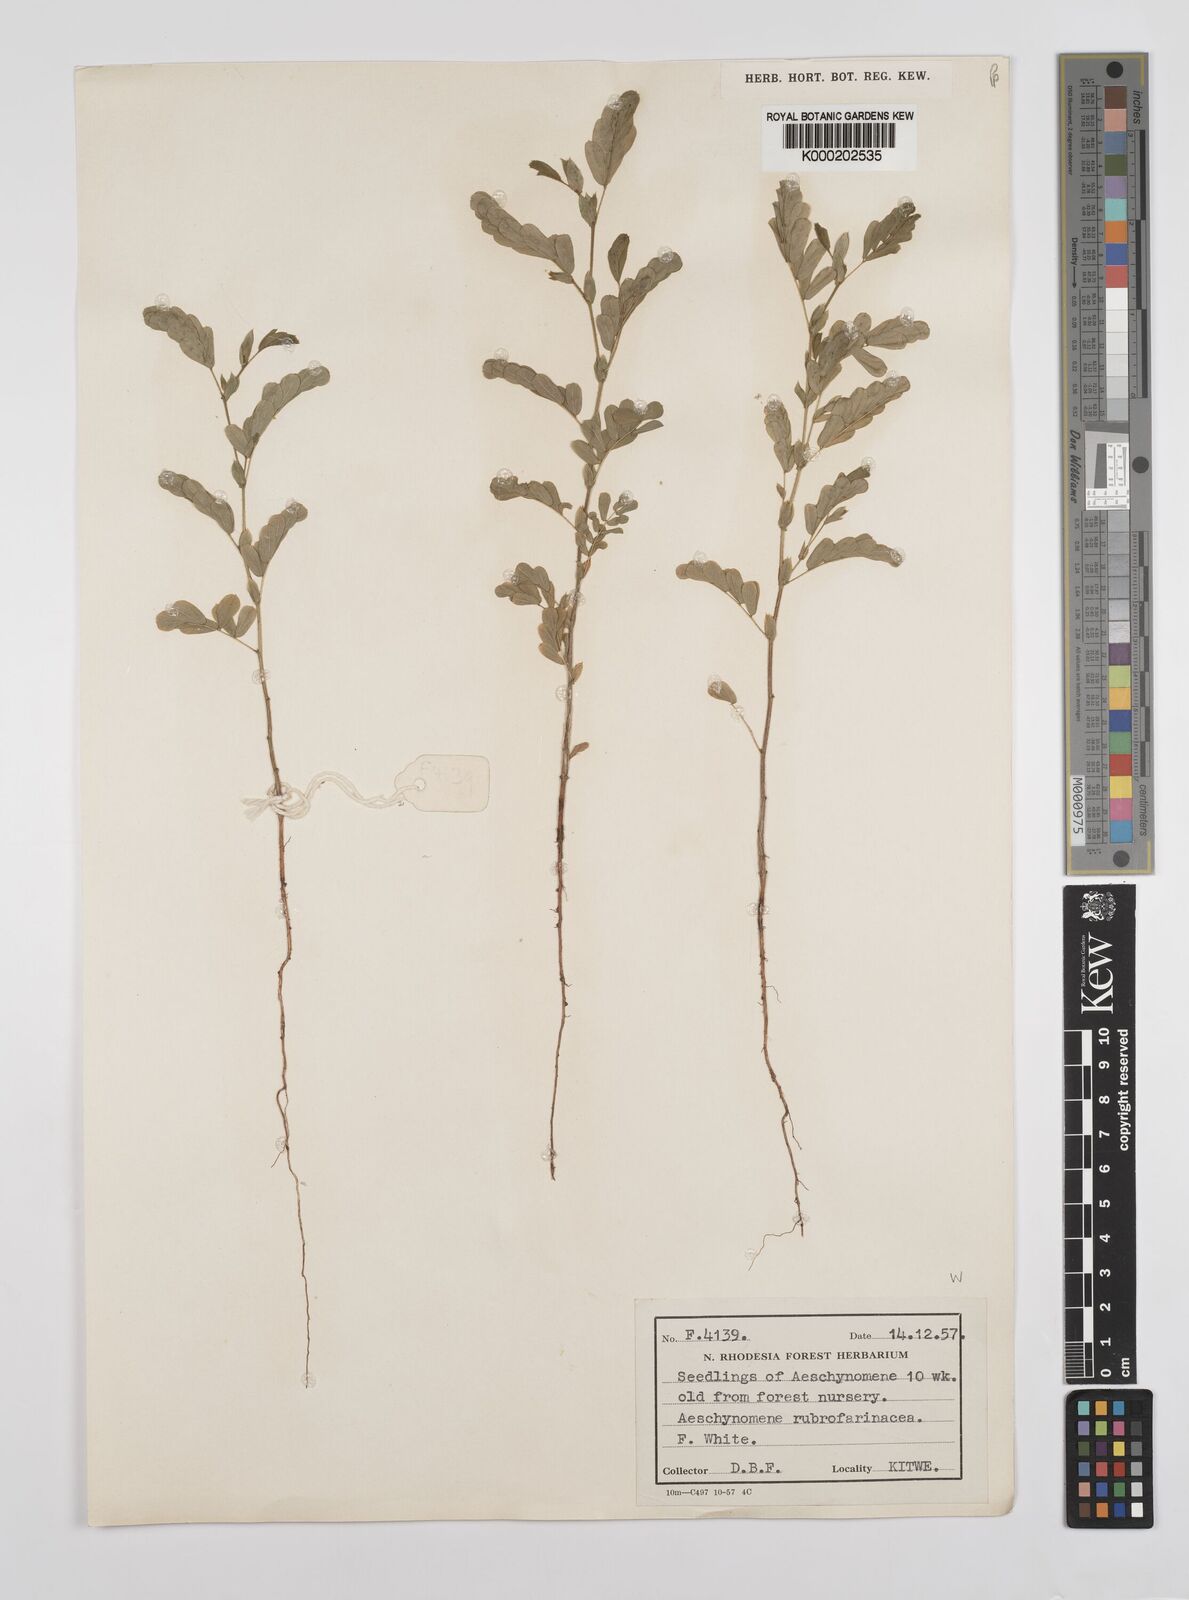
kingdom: Plantae
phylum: Tracheophyta
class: Magnoliopsida
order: Fabales
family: Fabaceae
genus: Aeschynomene
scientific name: Aeschynomene rubrofarinacea
